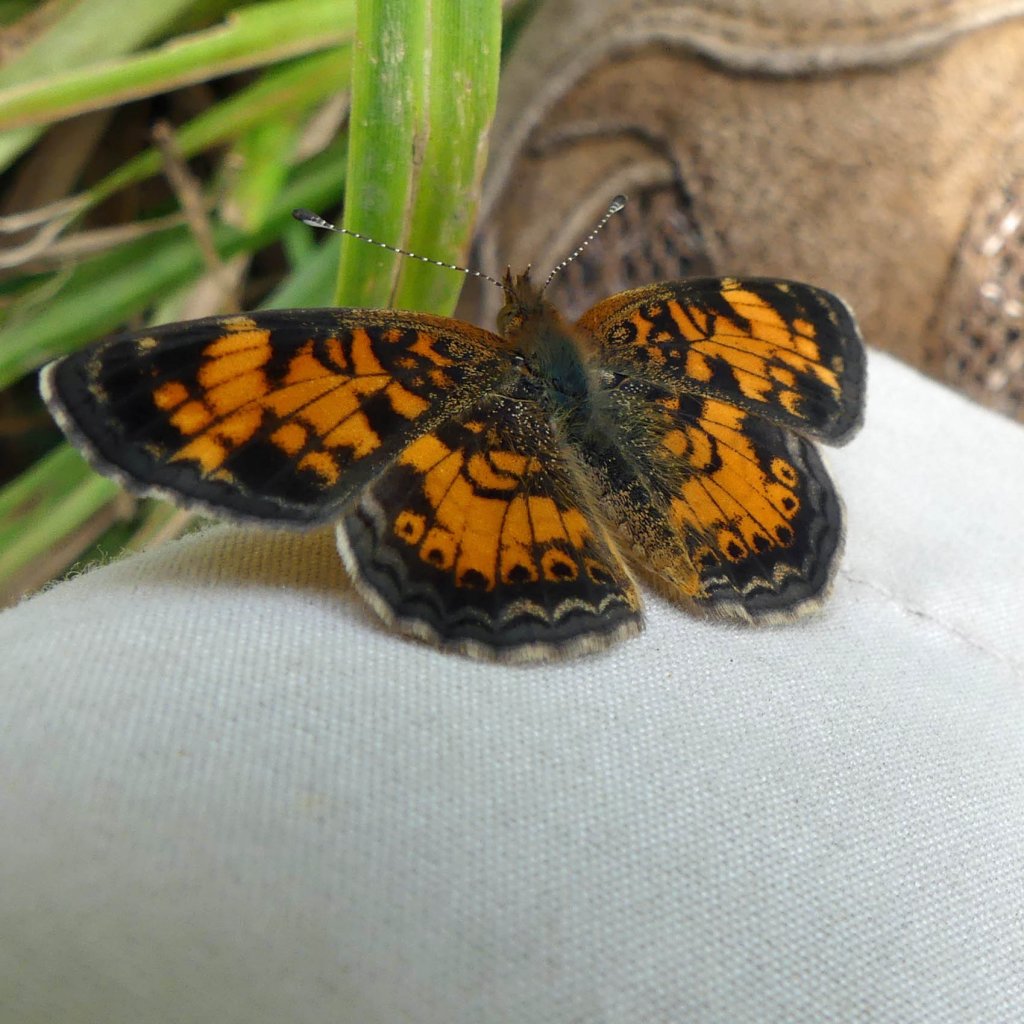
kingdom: Animalia
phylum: Arthropoda
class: Insecta
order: Lepidoptera
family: Nymphalidae
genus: Phyciodes
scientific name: Phyciodes tharos
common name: Pearl Crescent
